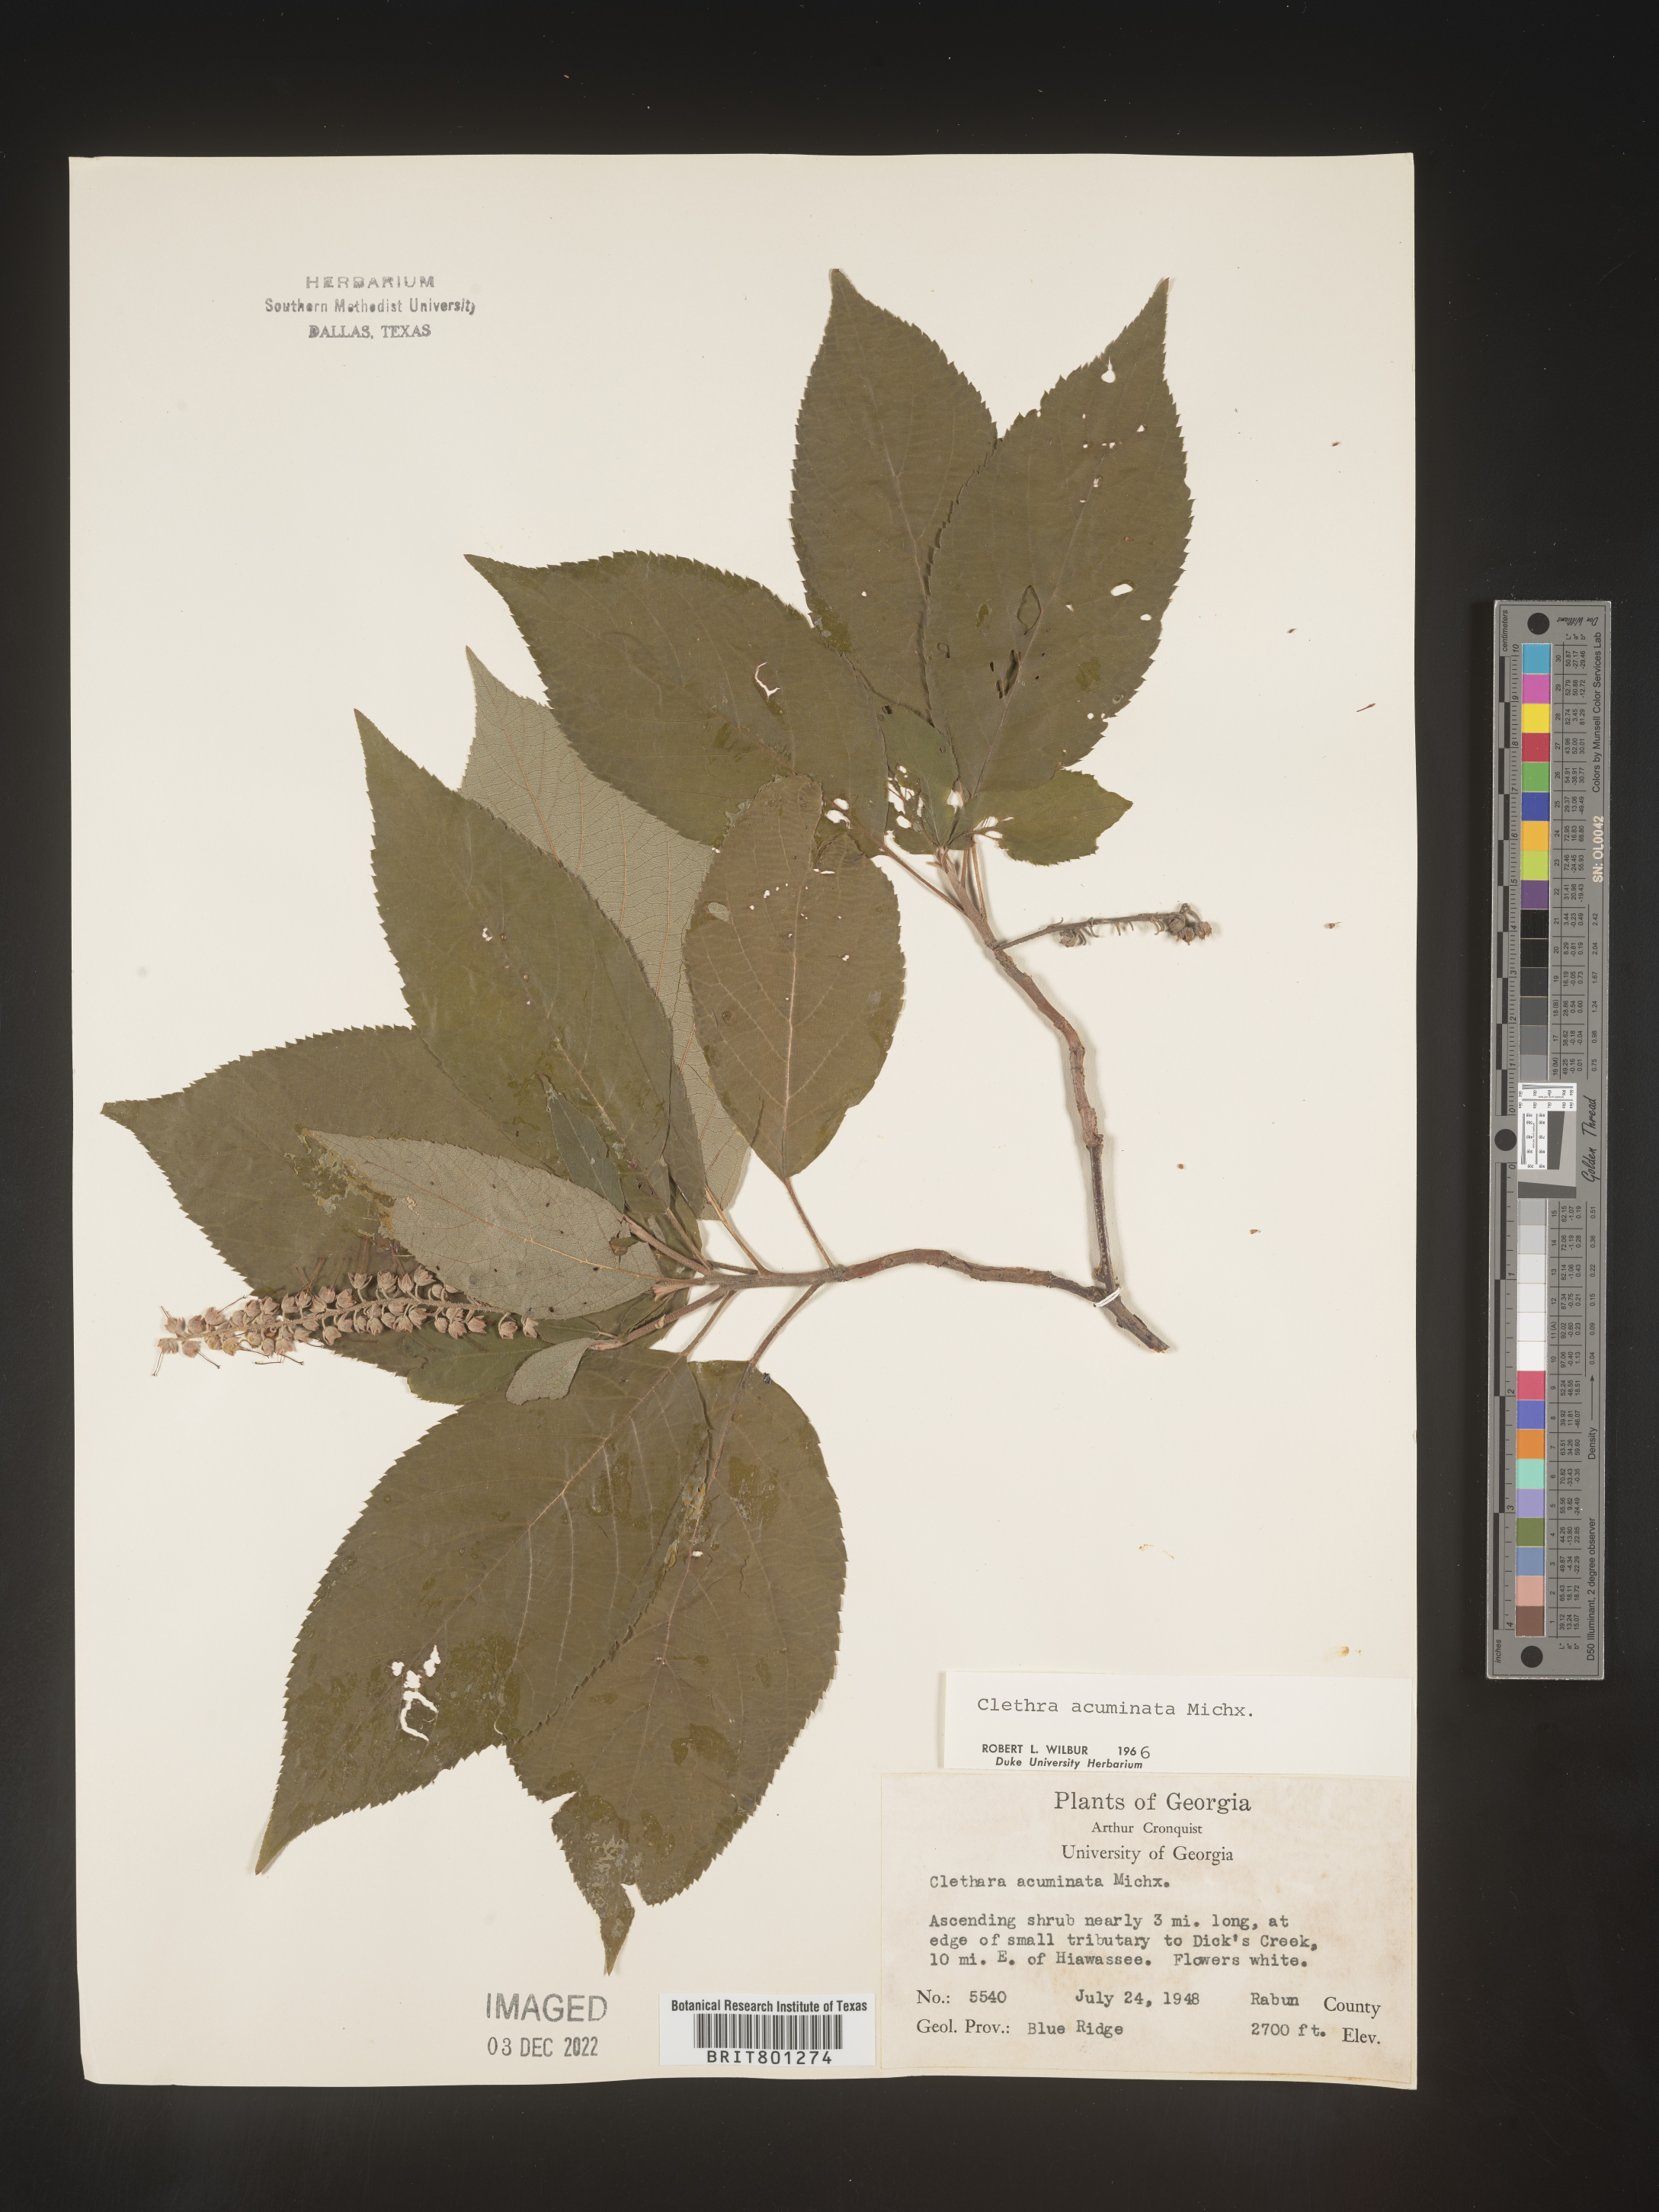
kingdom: Plantae
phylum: Tracheophyta
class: Magnoliopsida
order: Ericales
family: Clethraceae
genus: Clethra
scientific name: Clethra acuminata
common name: Mountain sweet pepperbush
